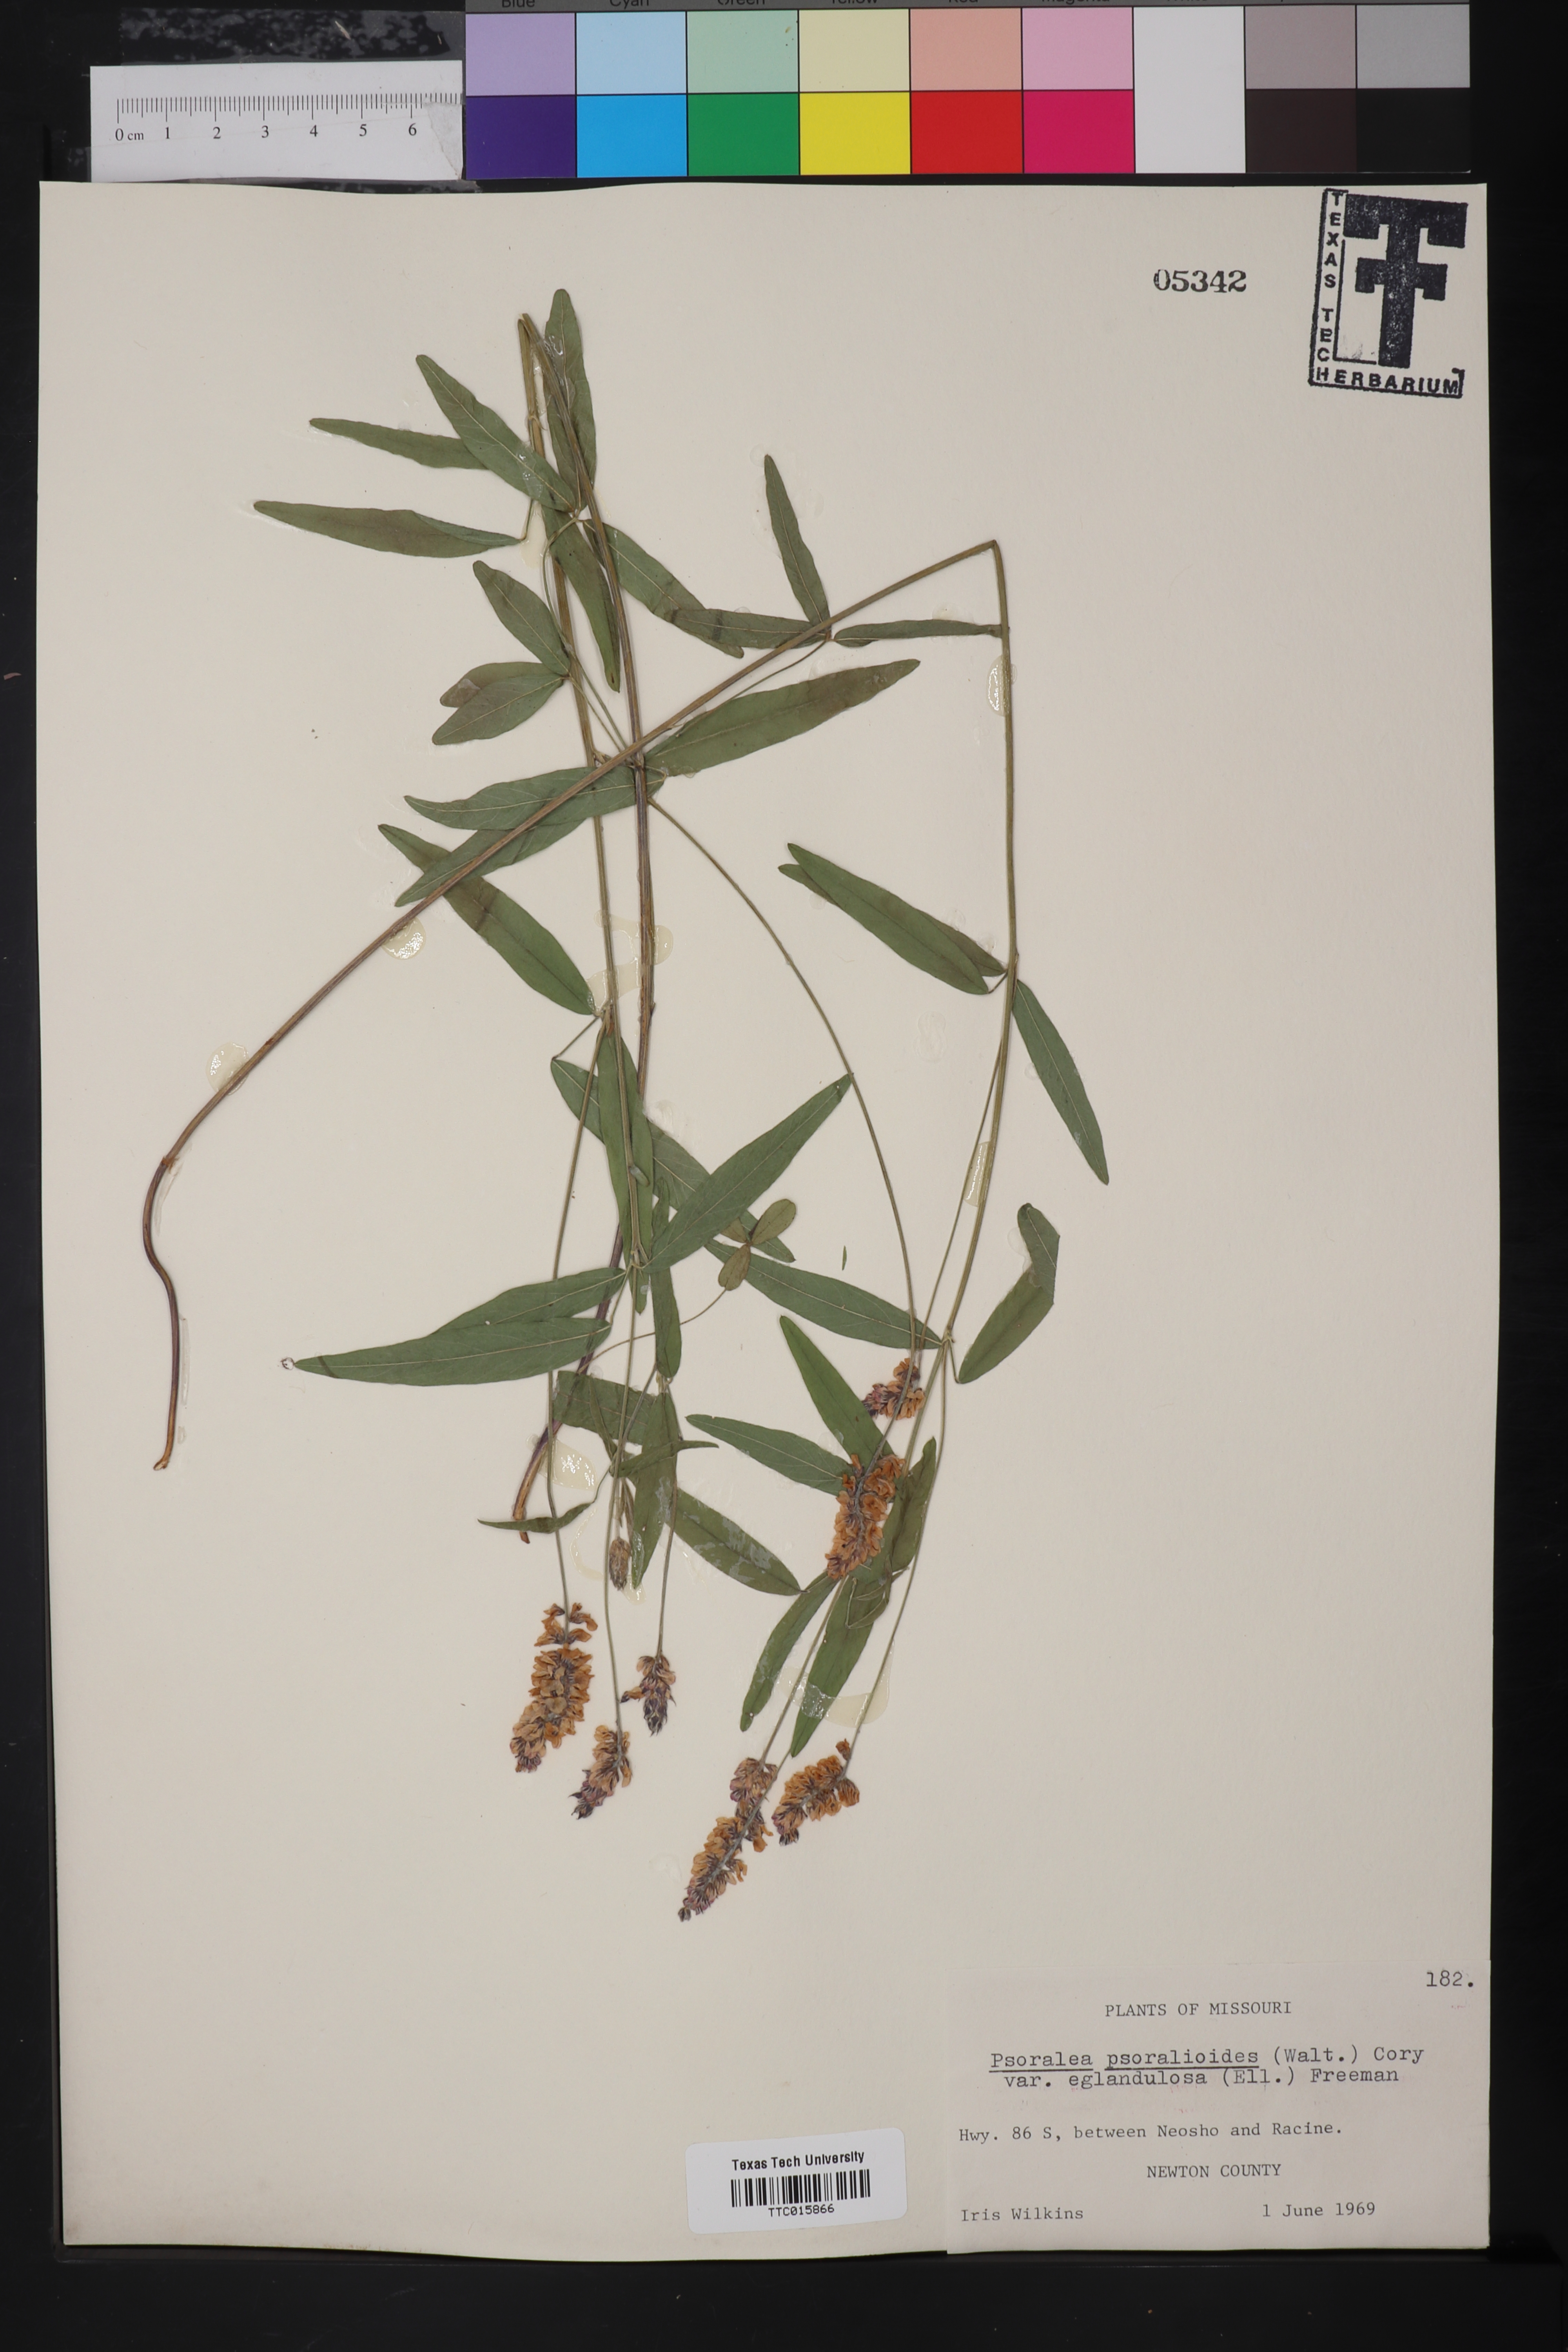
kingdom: Plantae
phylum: Tracheophyta
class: Magnoliopsida
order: Fabales
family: Fabaceae
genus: Orbexilum
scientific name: Orbexilum psoralioides
